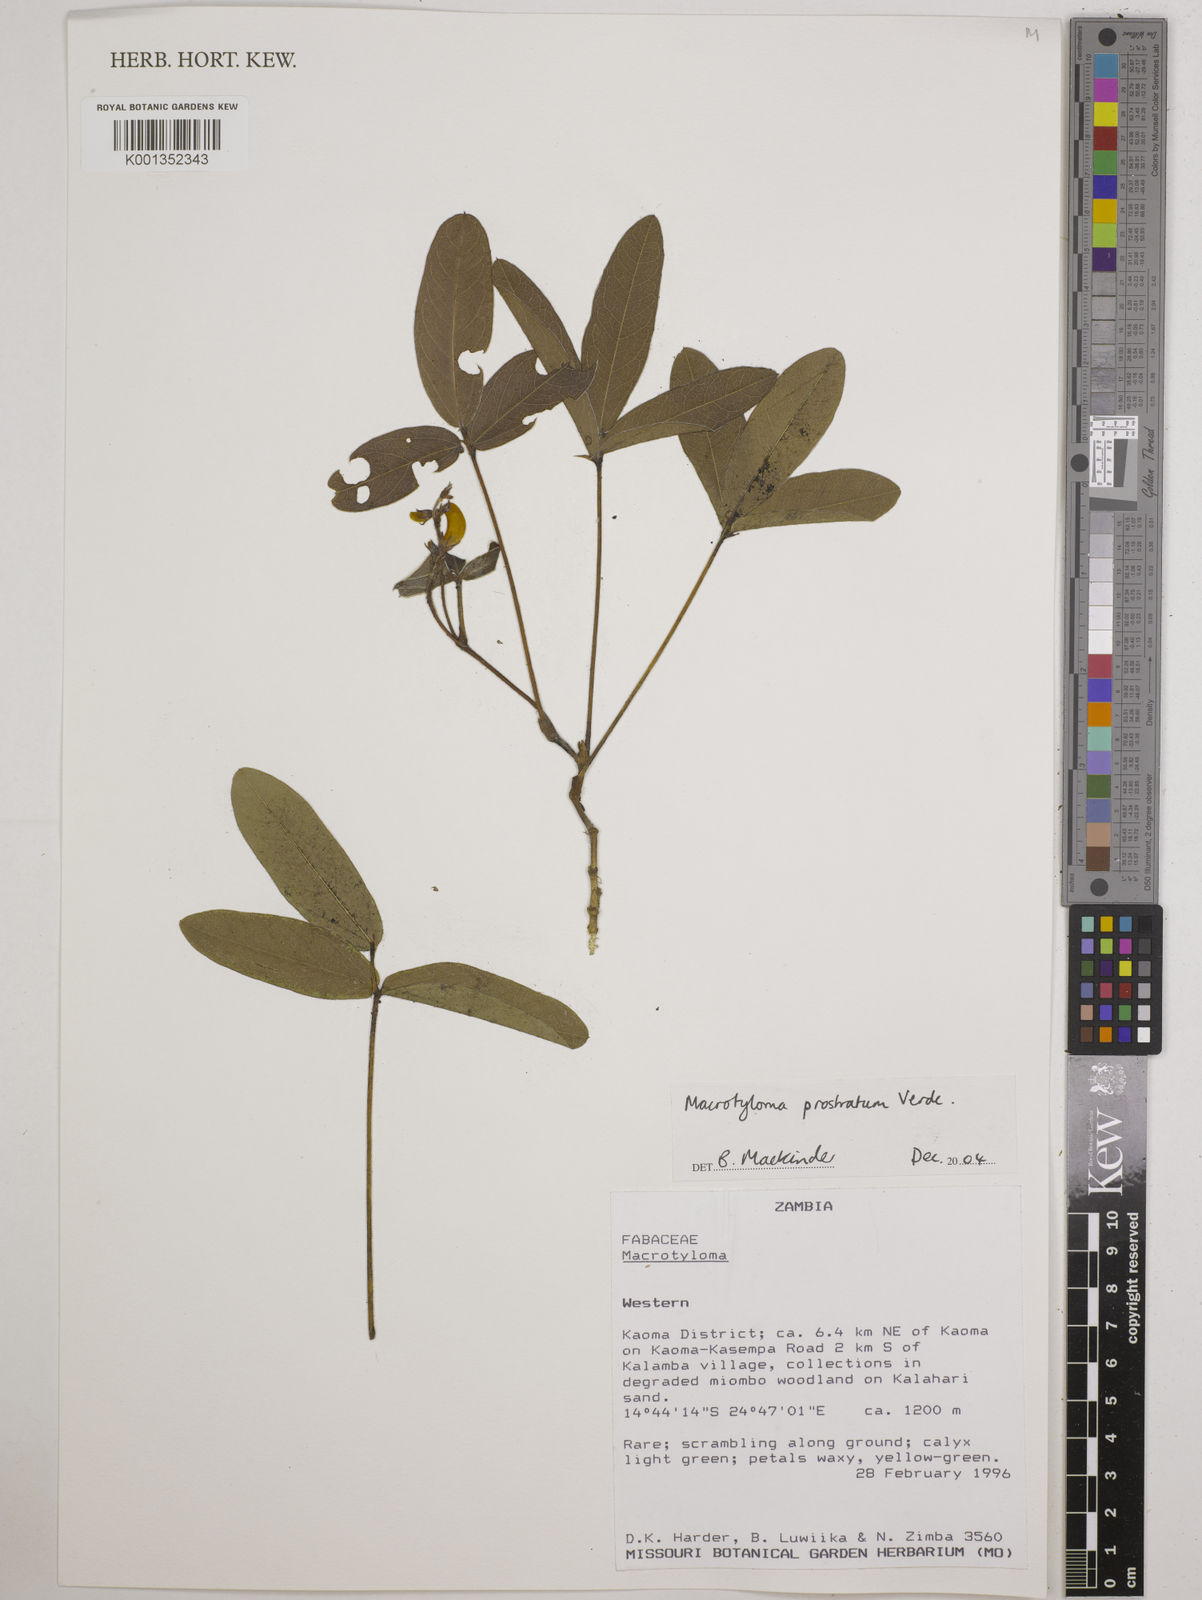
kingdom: Plantae
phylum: Tracheophyta
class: Magnoliopsida
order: Fabales
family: Fabaceae
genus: Macrotyloma
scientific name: Macrotyloma prostratum
